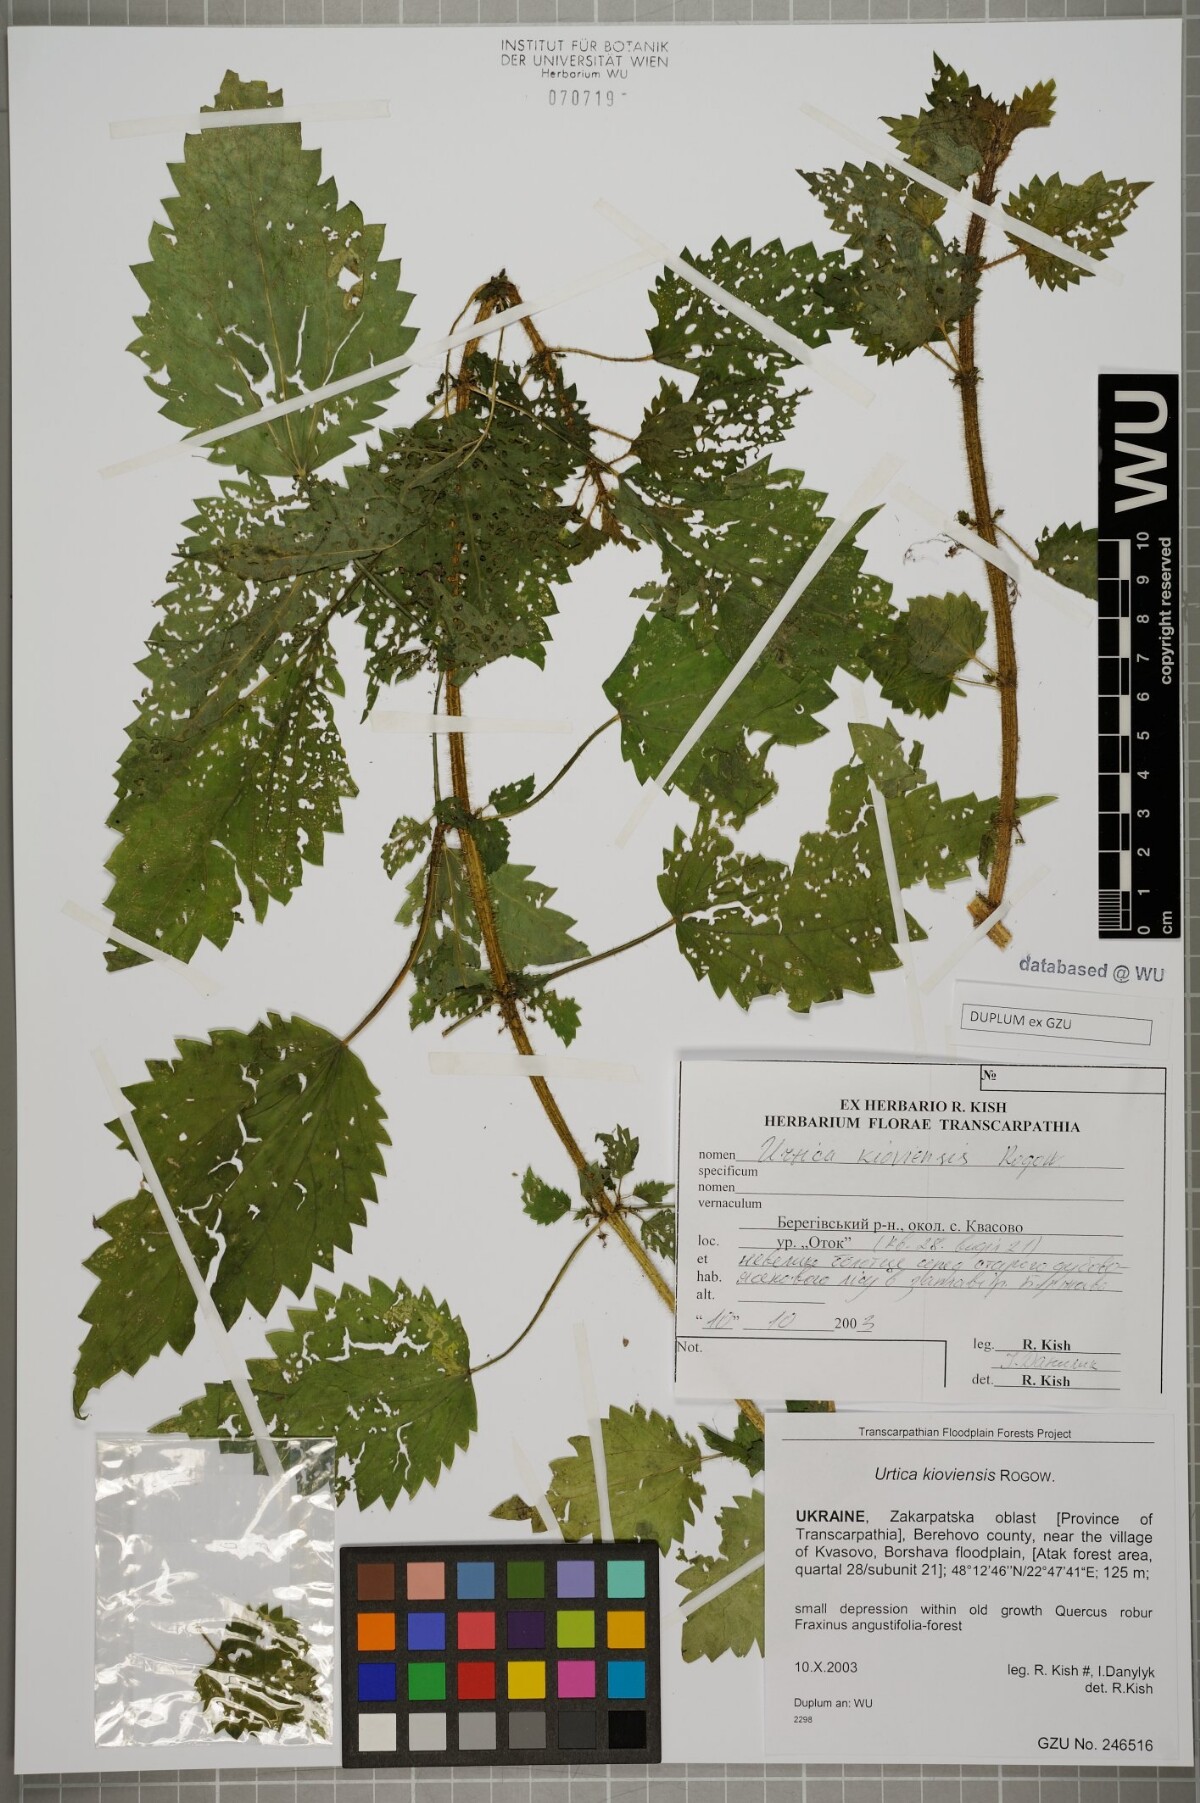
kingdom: Plantae
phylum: Tracheophyta
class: Magnoliopsida
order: Rosales
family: Urticaceae
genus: Urtica
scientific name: Urtica kioviensis
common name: Kievan nettle
